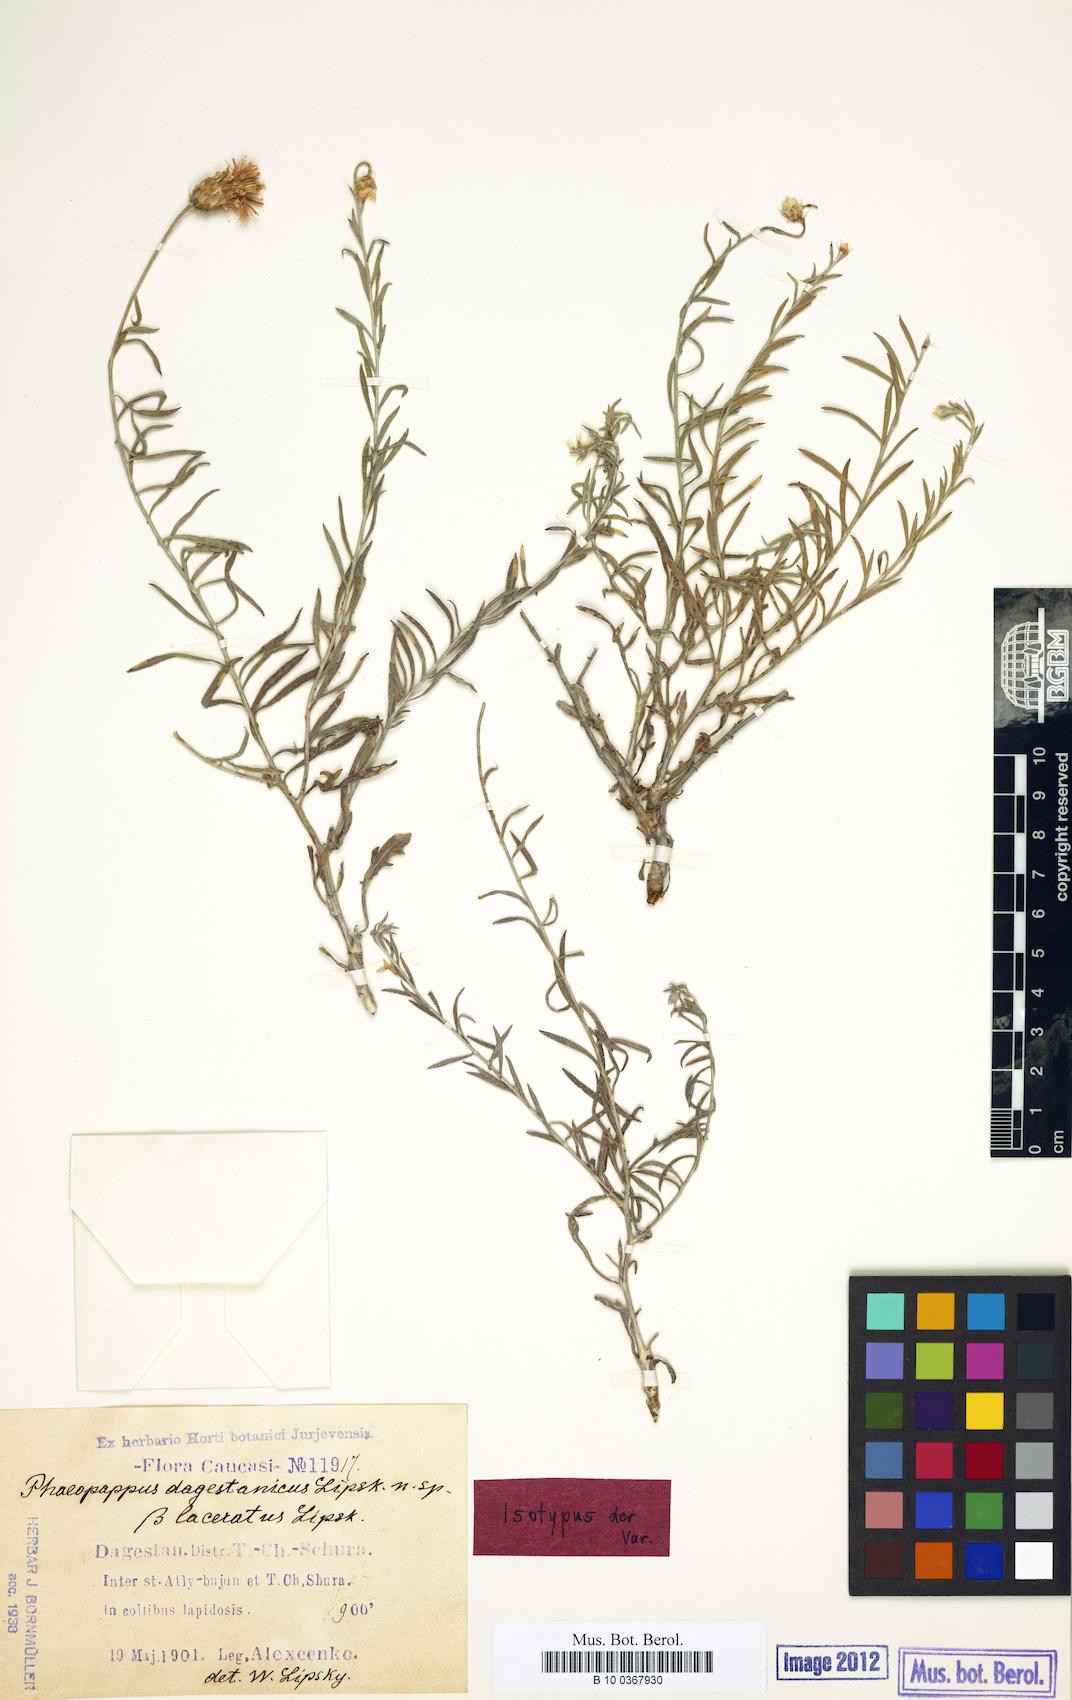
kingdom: Plantae
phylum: Tracheophyta
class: Magnoliopsida
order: Asterales
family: Asteraceae
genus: Psephellus
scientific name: Psephellus czirkejensis
